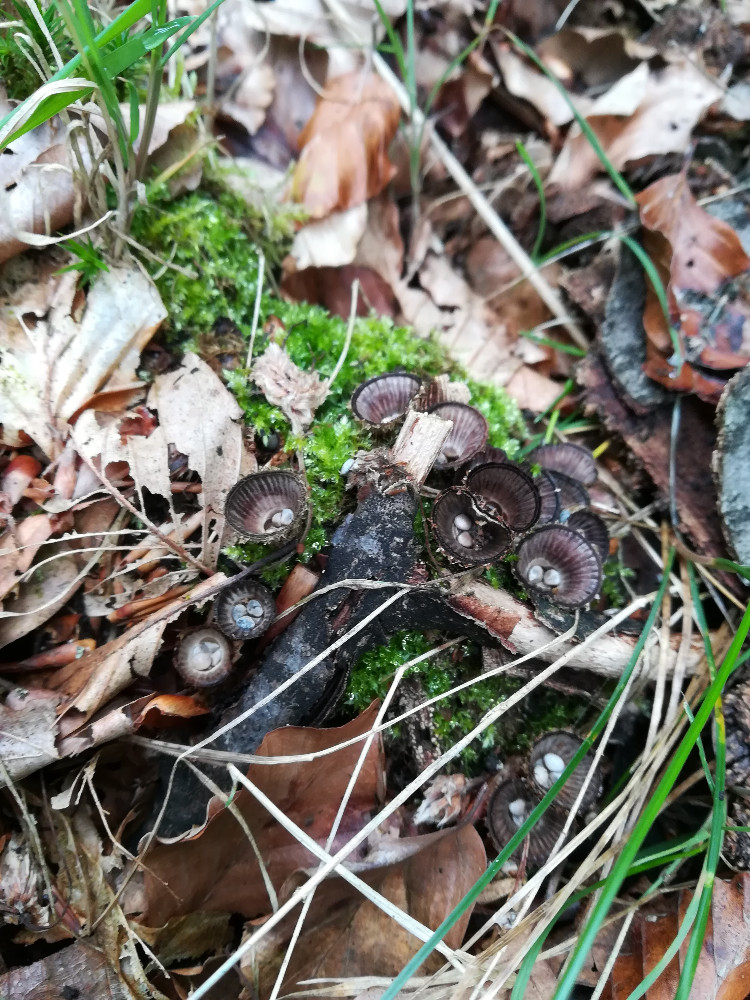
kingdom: Fungi
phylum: Basidiomycota
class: Agaricomycetes
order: Agaricales
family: Agaricaceae
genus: Cyathus
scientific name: Cyathus striatus
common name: stribet redesvamp
